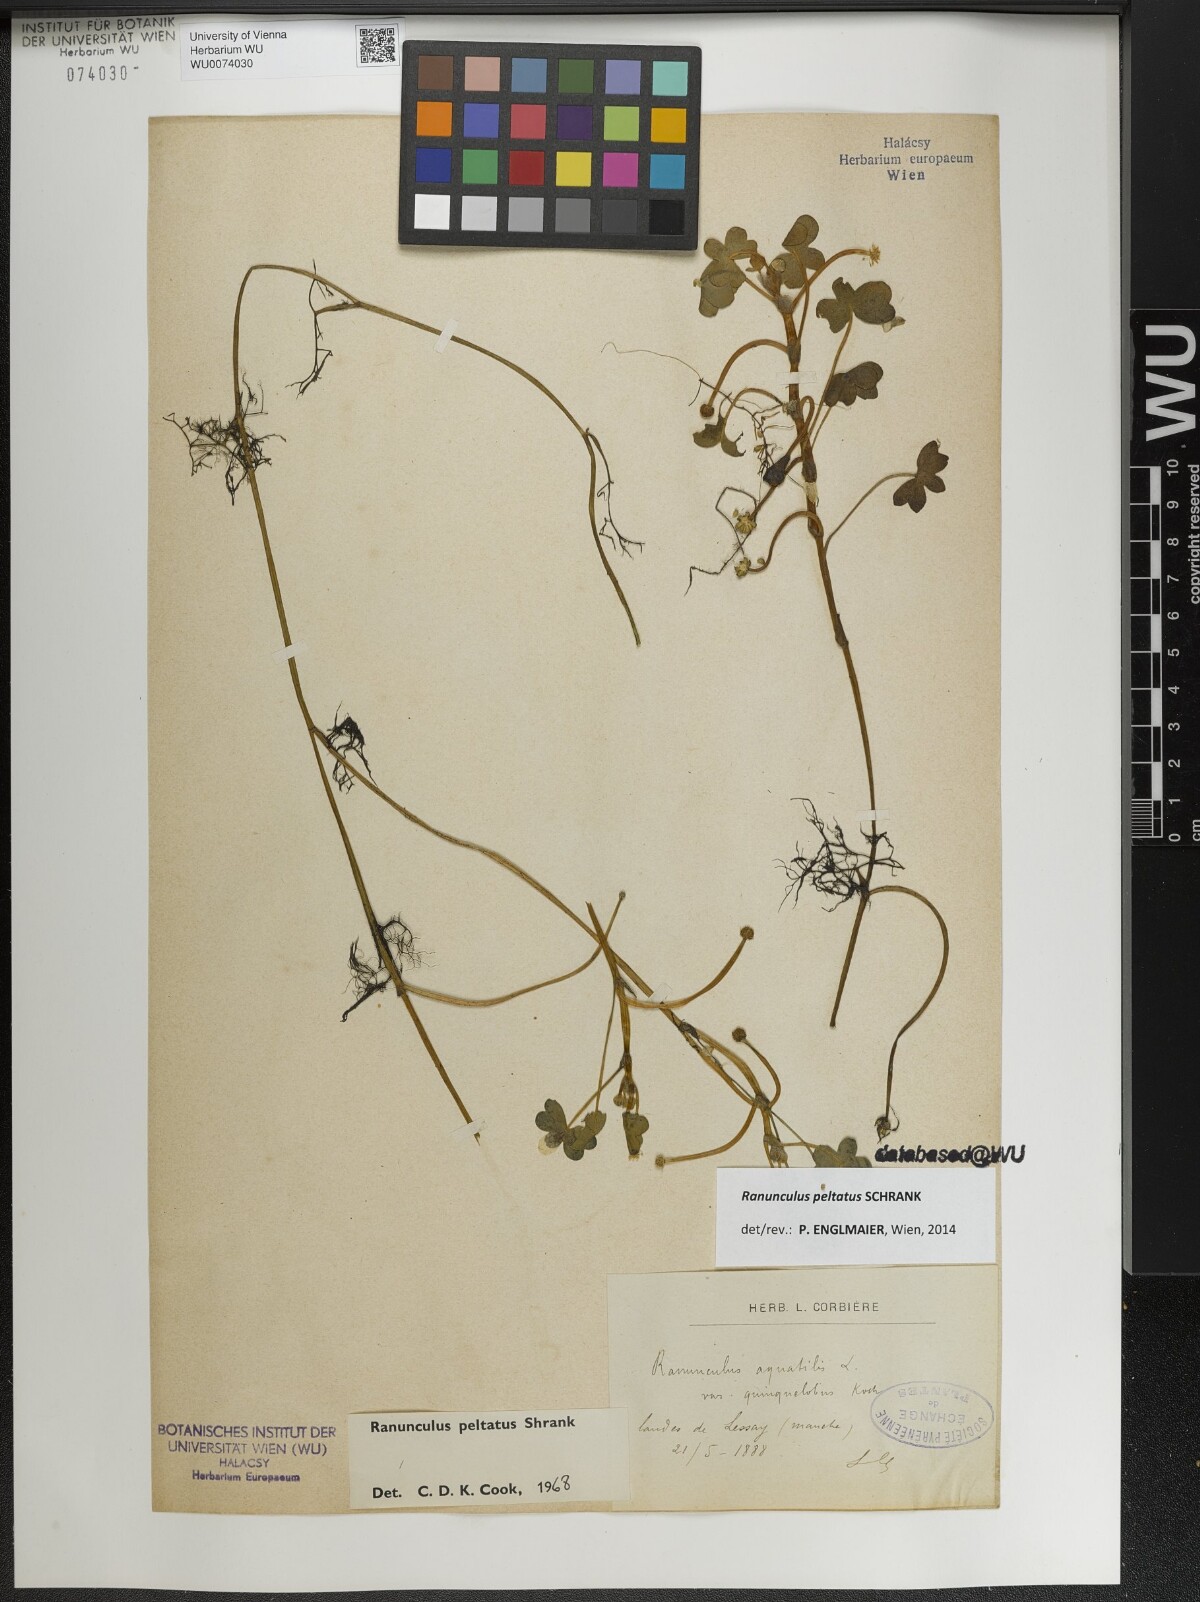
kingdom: Plantae
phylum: Tracheophyta
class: Magnoliopsida
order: Ranunculales
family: Ranunculaceae
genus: Ranunculus
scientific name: Ranunculus peltatus
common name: Pond water-crowfoot
